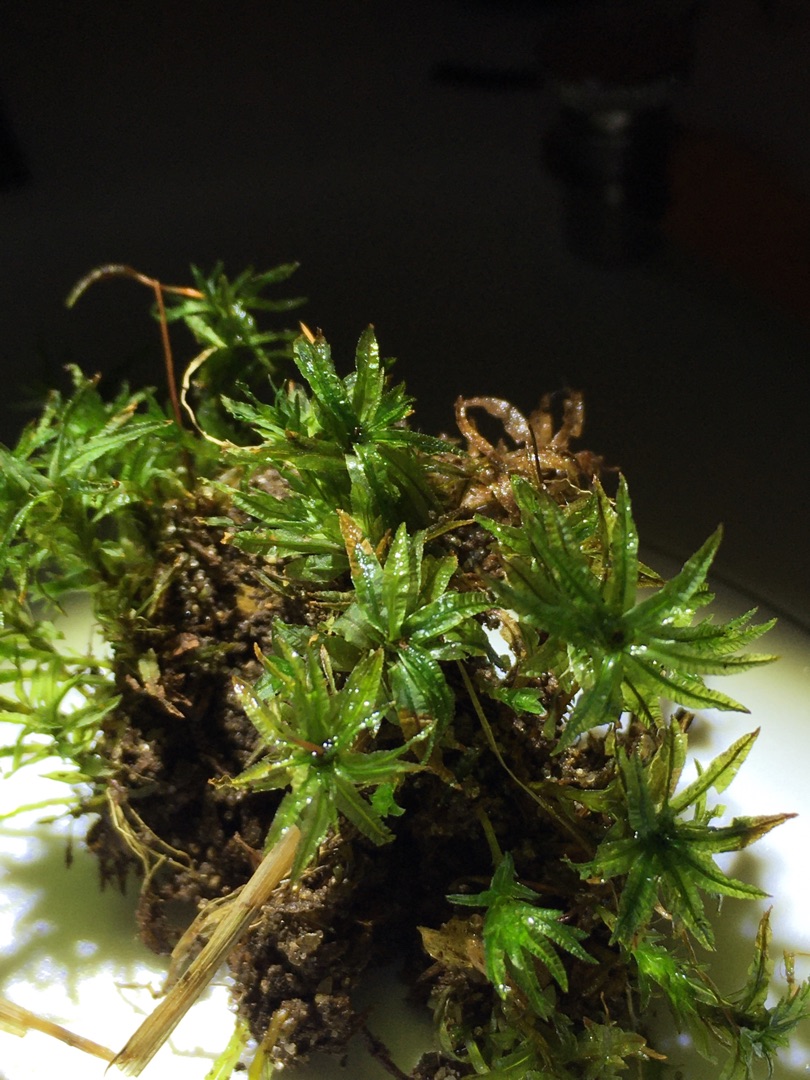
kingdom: Plantae
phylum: Bryophyta
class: Polytrichopsida
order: Polytrichales
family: Polytrichaceae
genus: Atrichum
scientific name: Atrichum undulatum
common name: Bølget katrinemos
